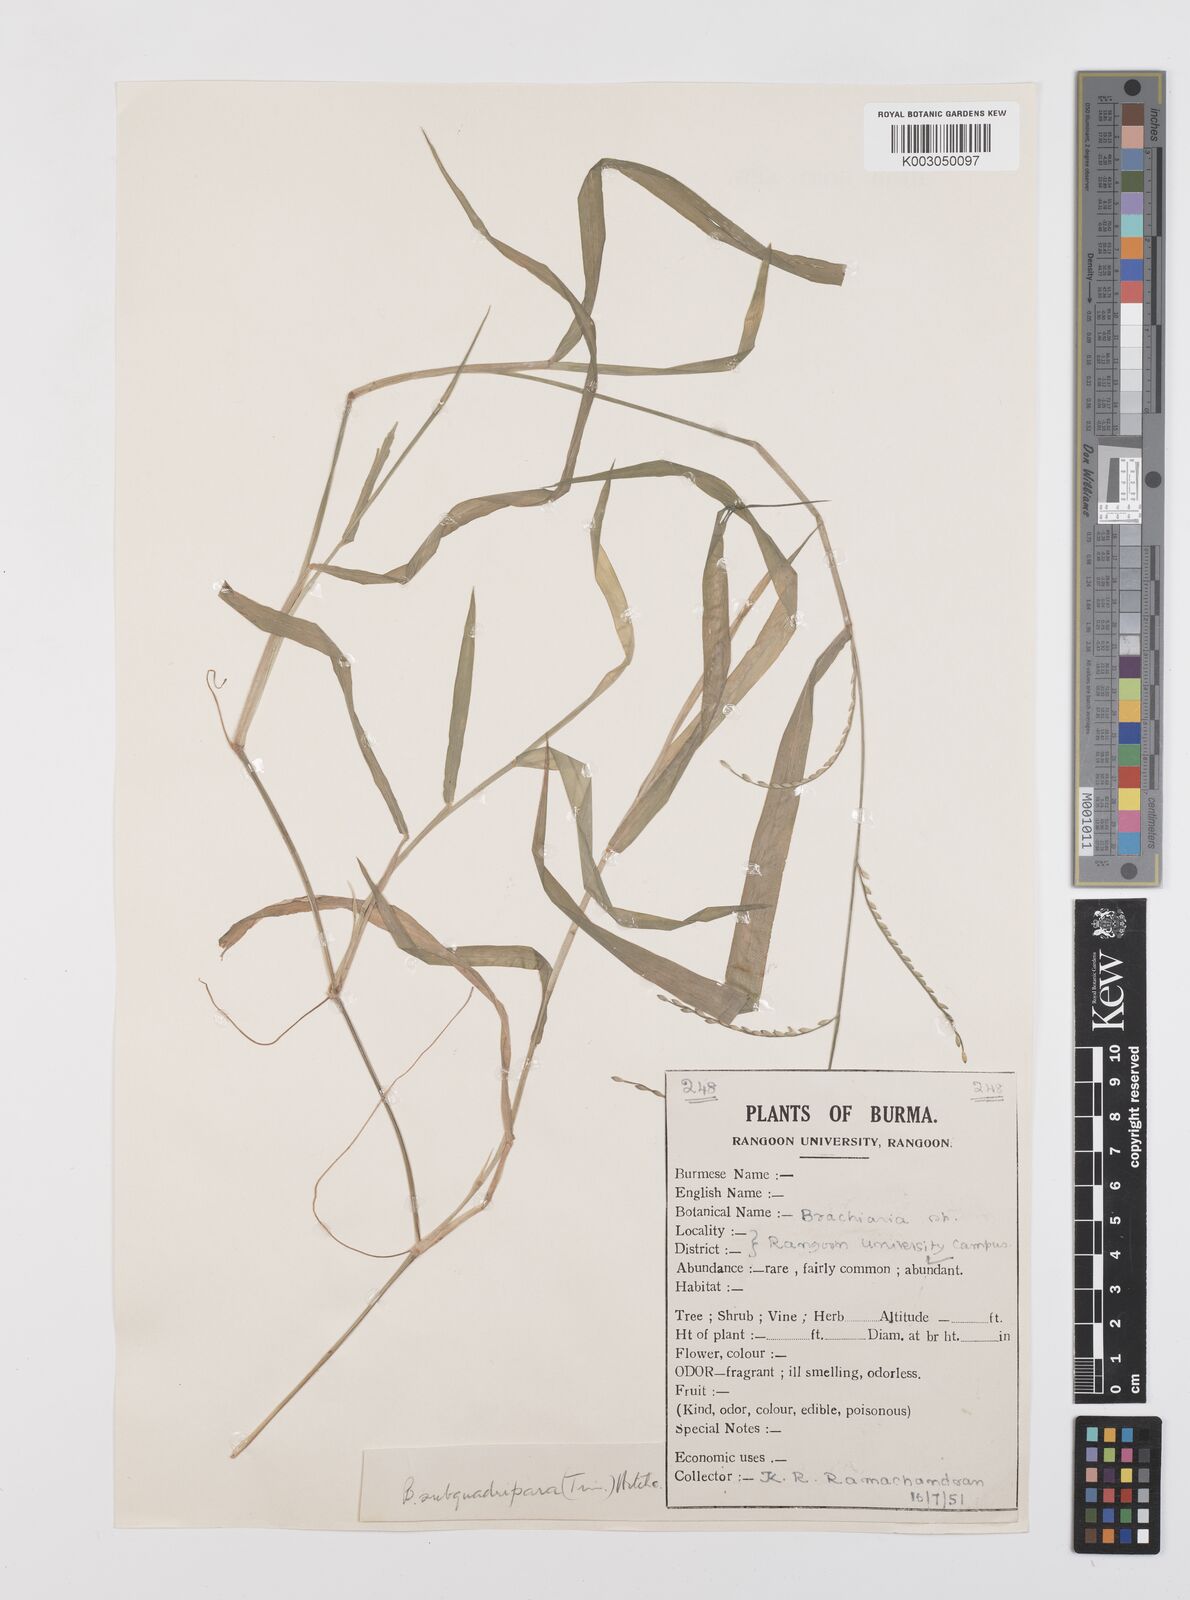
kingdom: Plantae
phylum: Tracheophyta
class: Liliopsida
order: Poales
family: Poaceae
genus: Urochloa
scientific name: Urochloa subquadripara
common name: Armgrass millet
